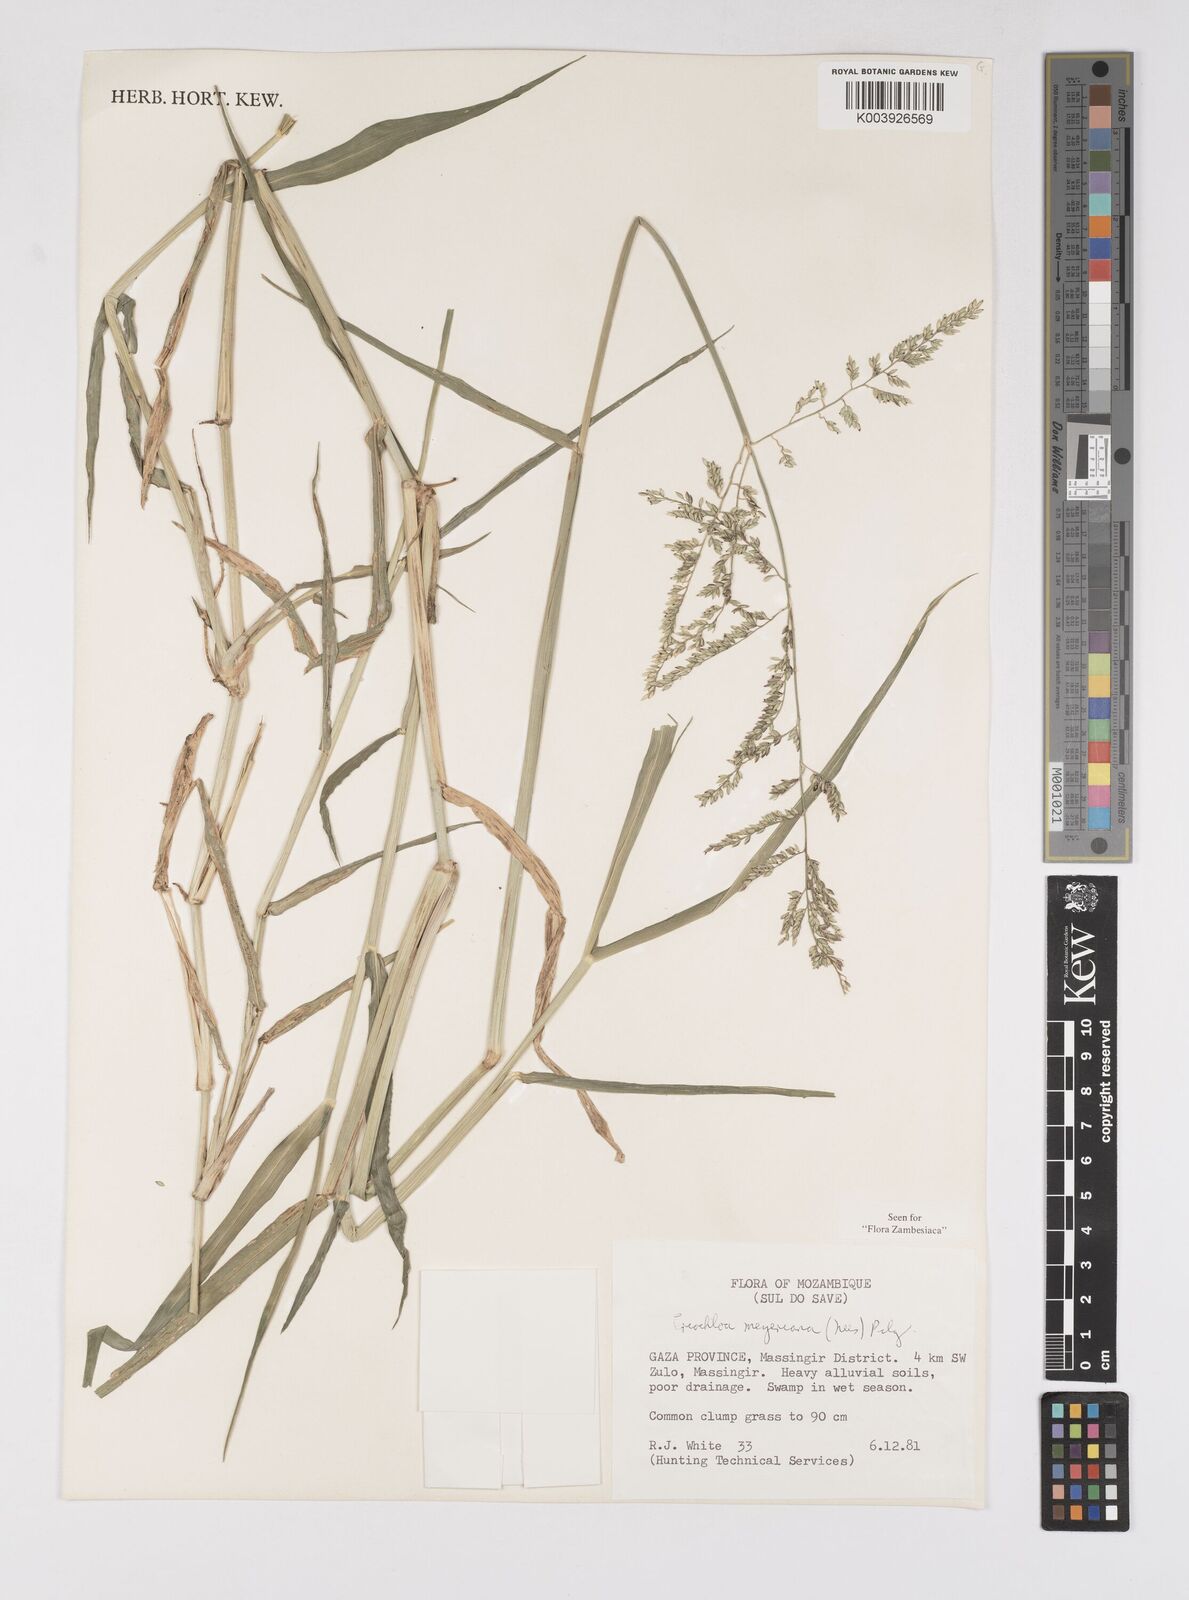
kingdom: Plantae
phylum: Tracheophyta
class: Liliopsida
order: Poales
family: Poaceae
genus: Eriochloa
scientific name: Eriochloa meyeriana
